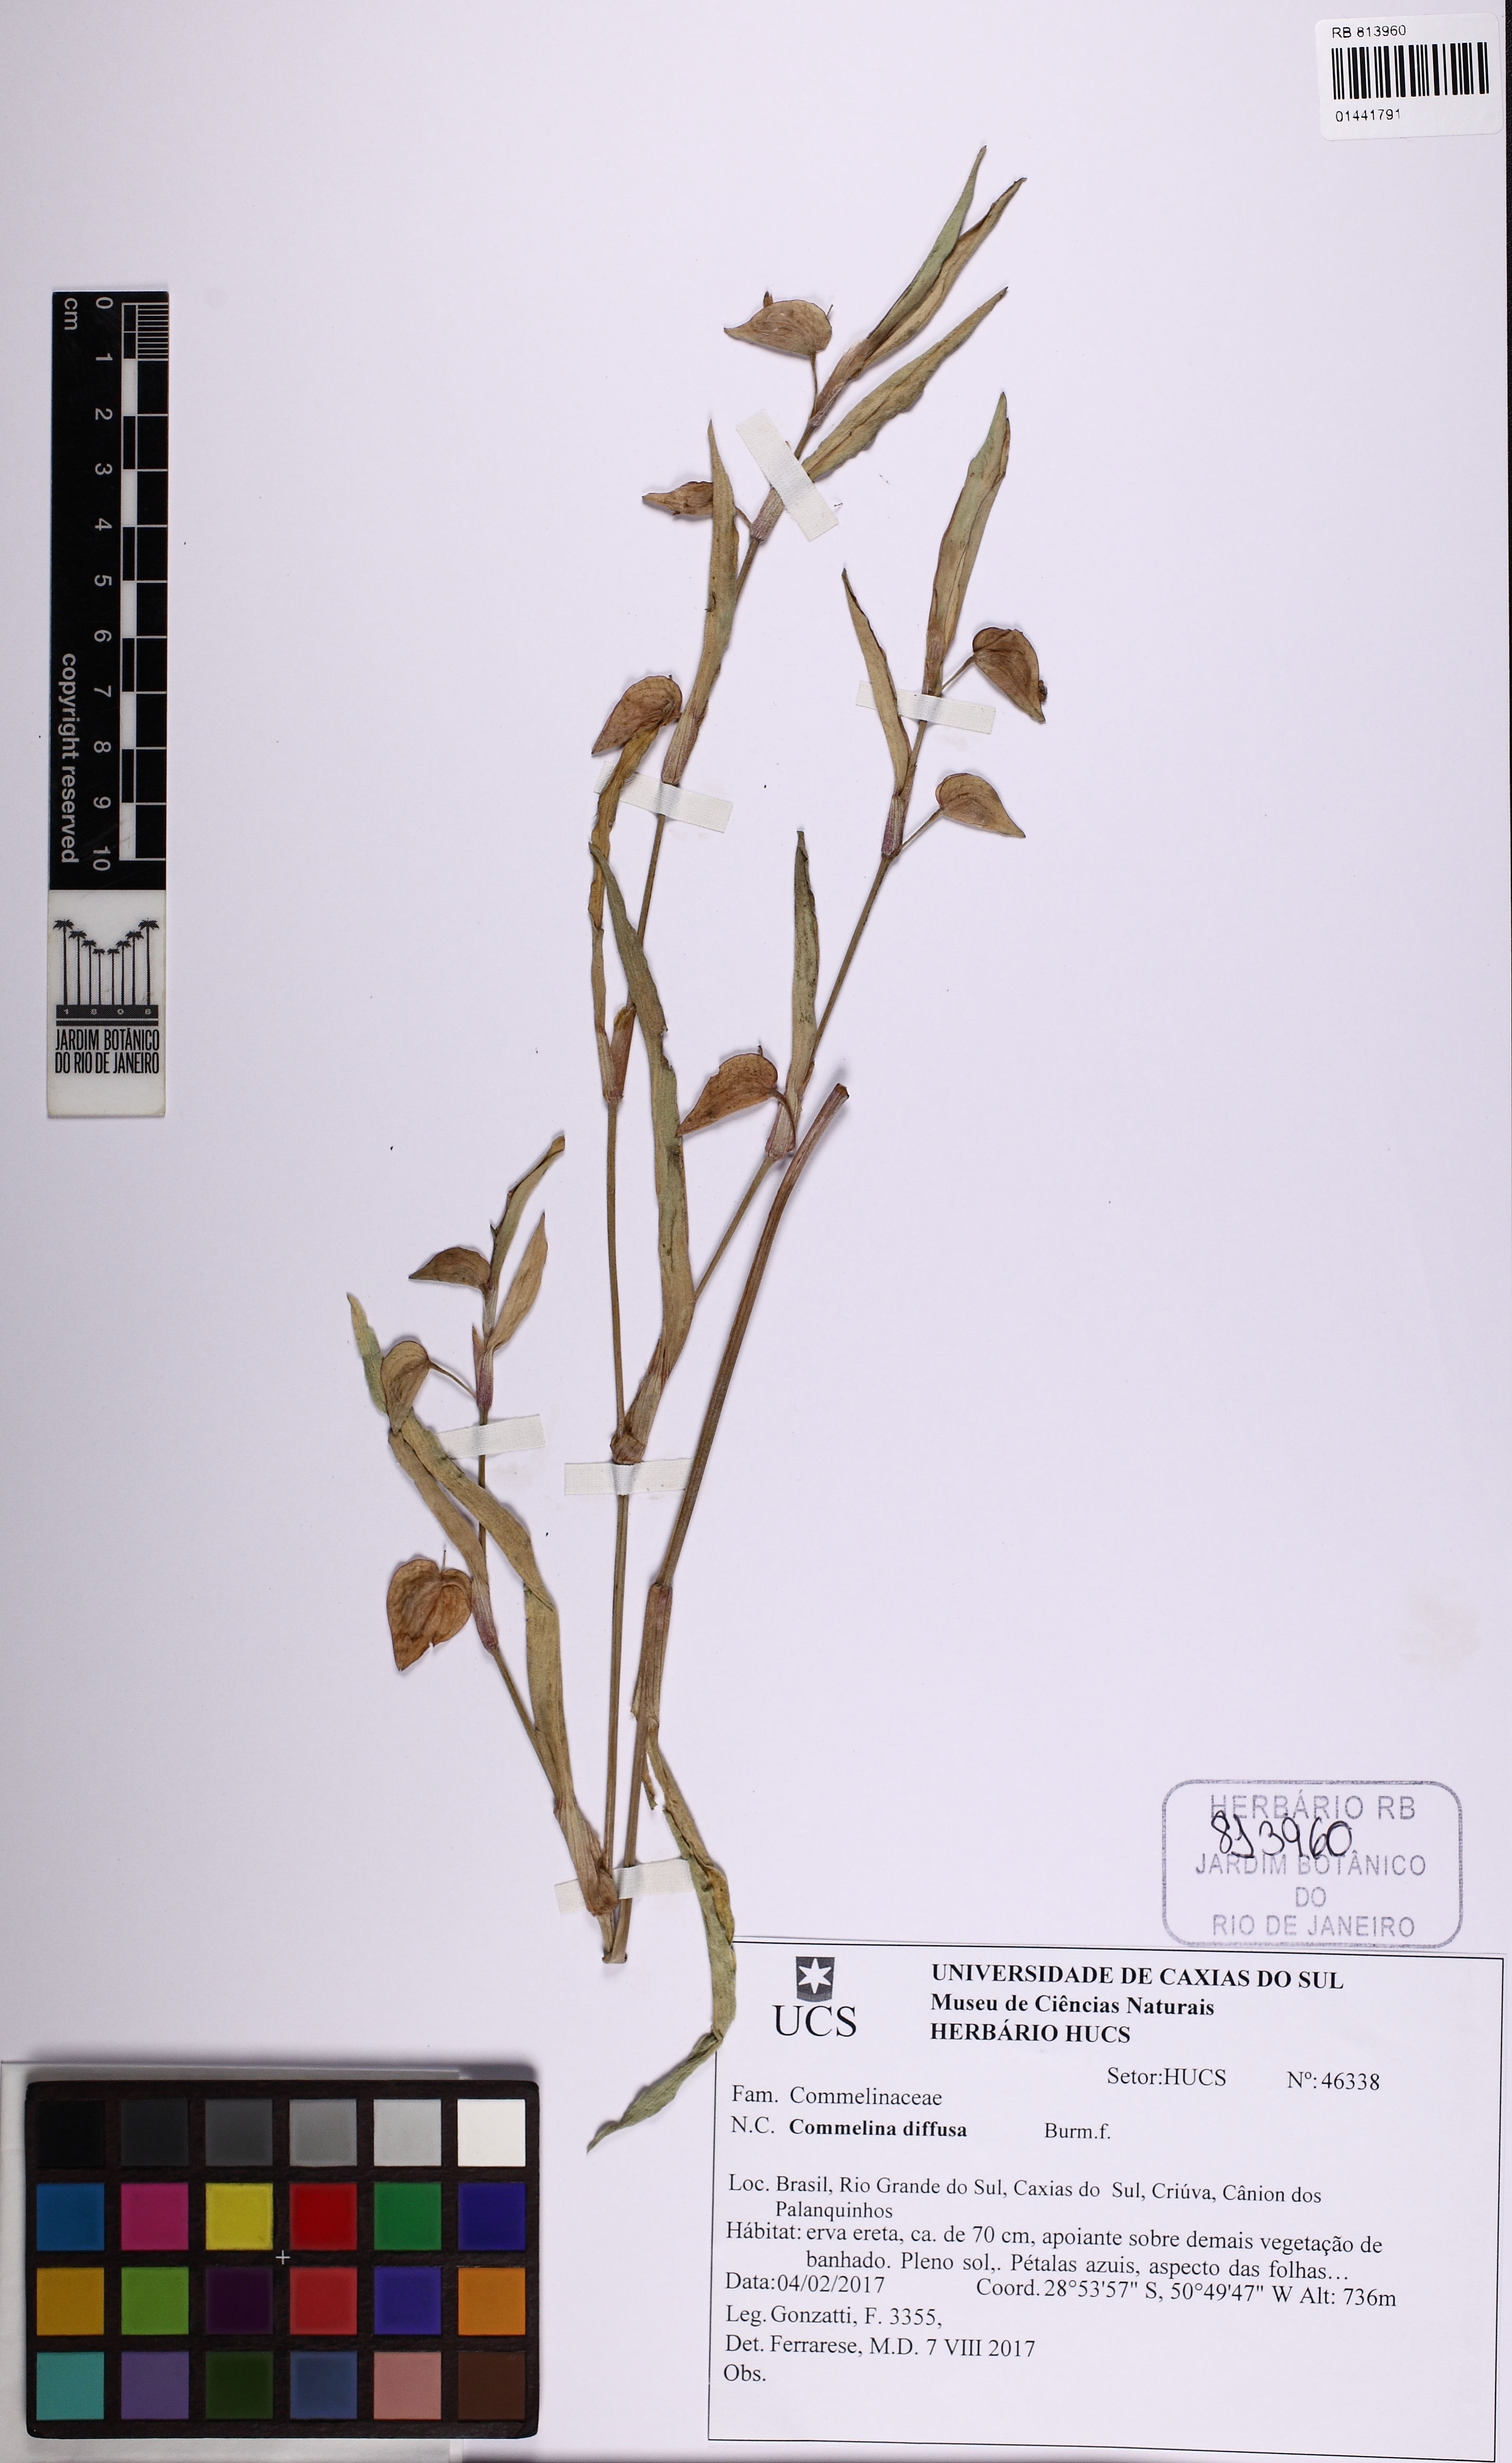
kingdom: Plantae
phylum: Tracheophyta
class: Liliopsida
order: Commelinales
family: Commelinaceae
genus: Commelina
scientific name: Commelina diffusa
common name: Climbing dayflower
